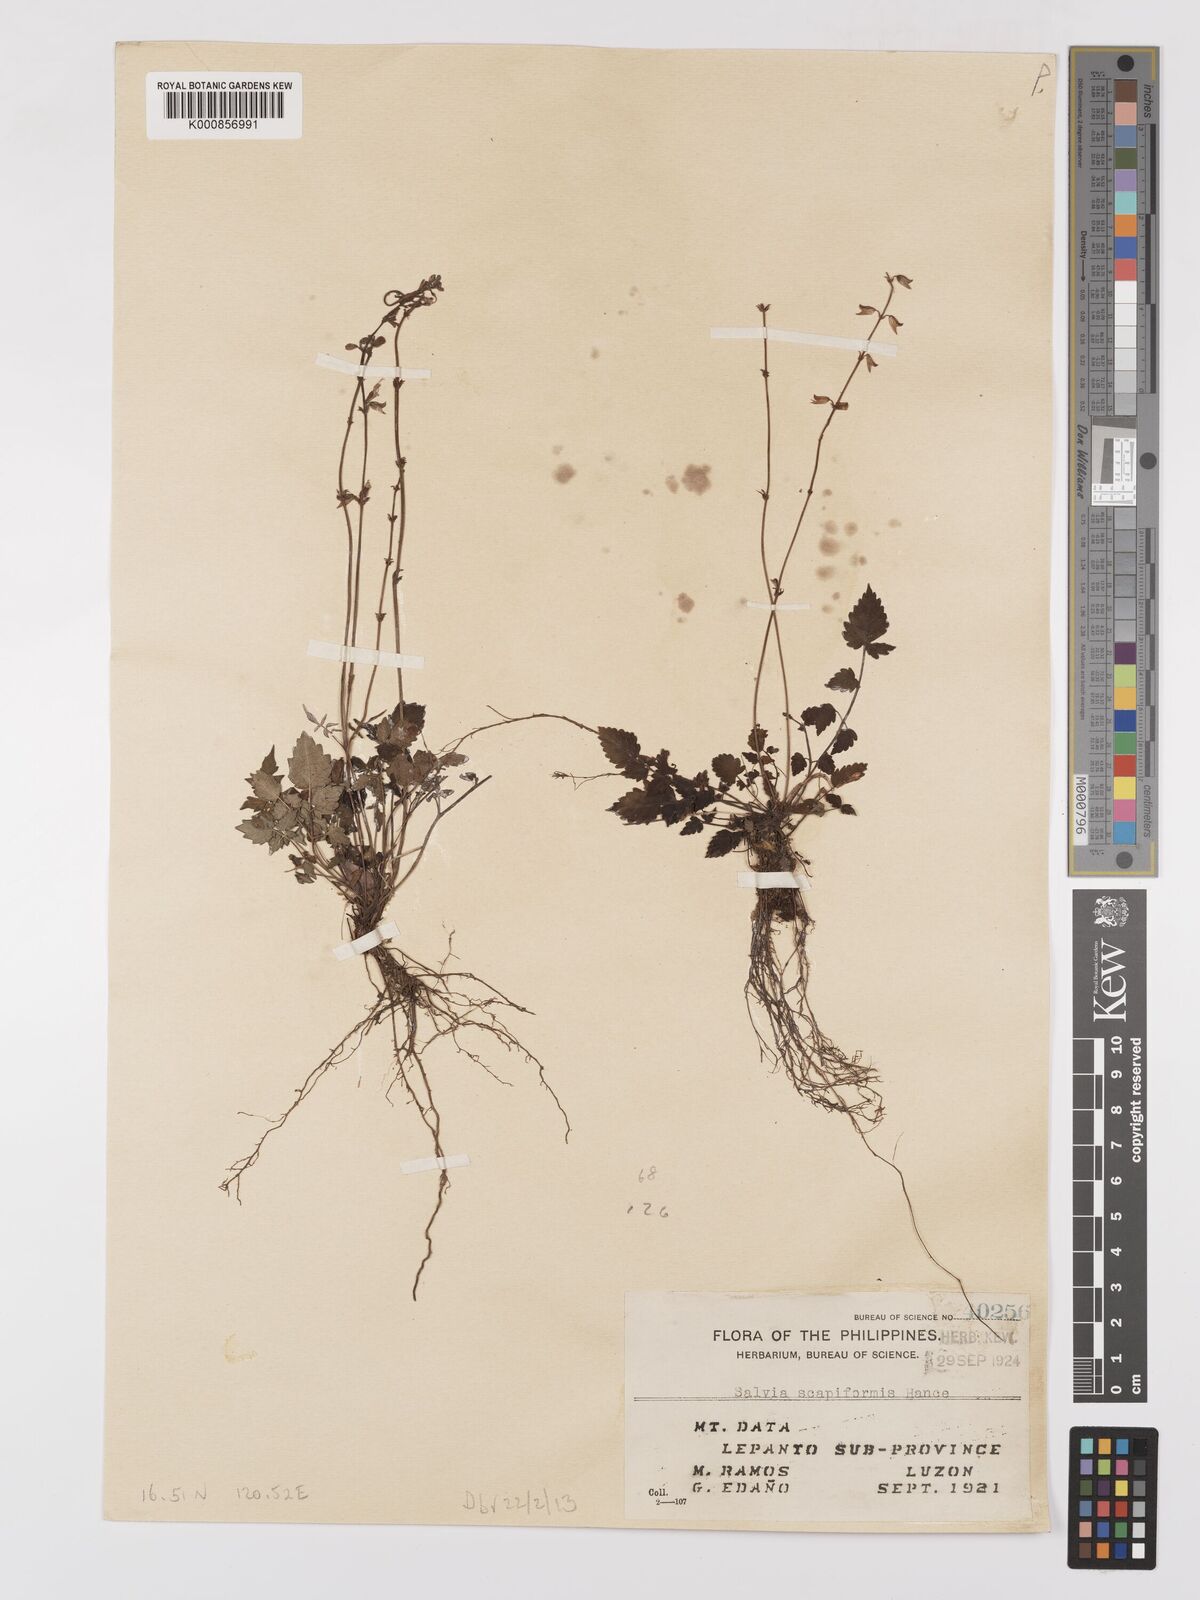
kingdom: Plantae
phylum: Tracheophyta
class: Magnoliopsida
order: Lamiales
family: Lamiaceae
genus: Salvia
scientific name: Salvia scapiformis
